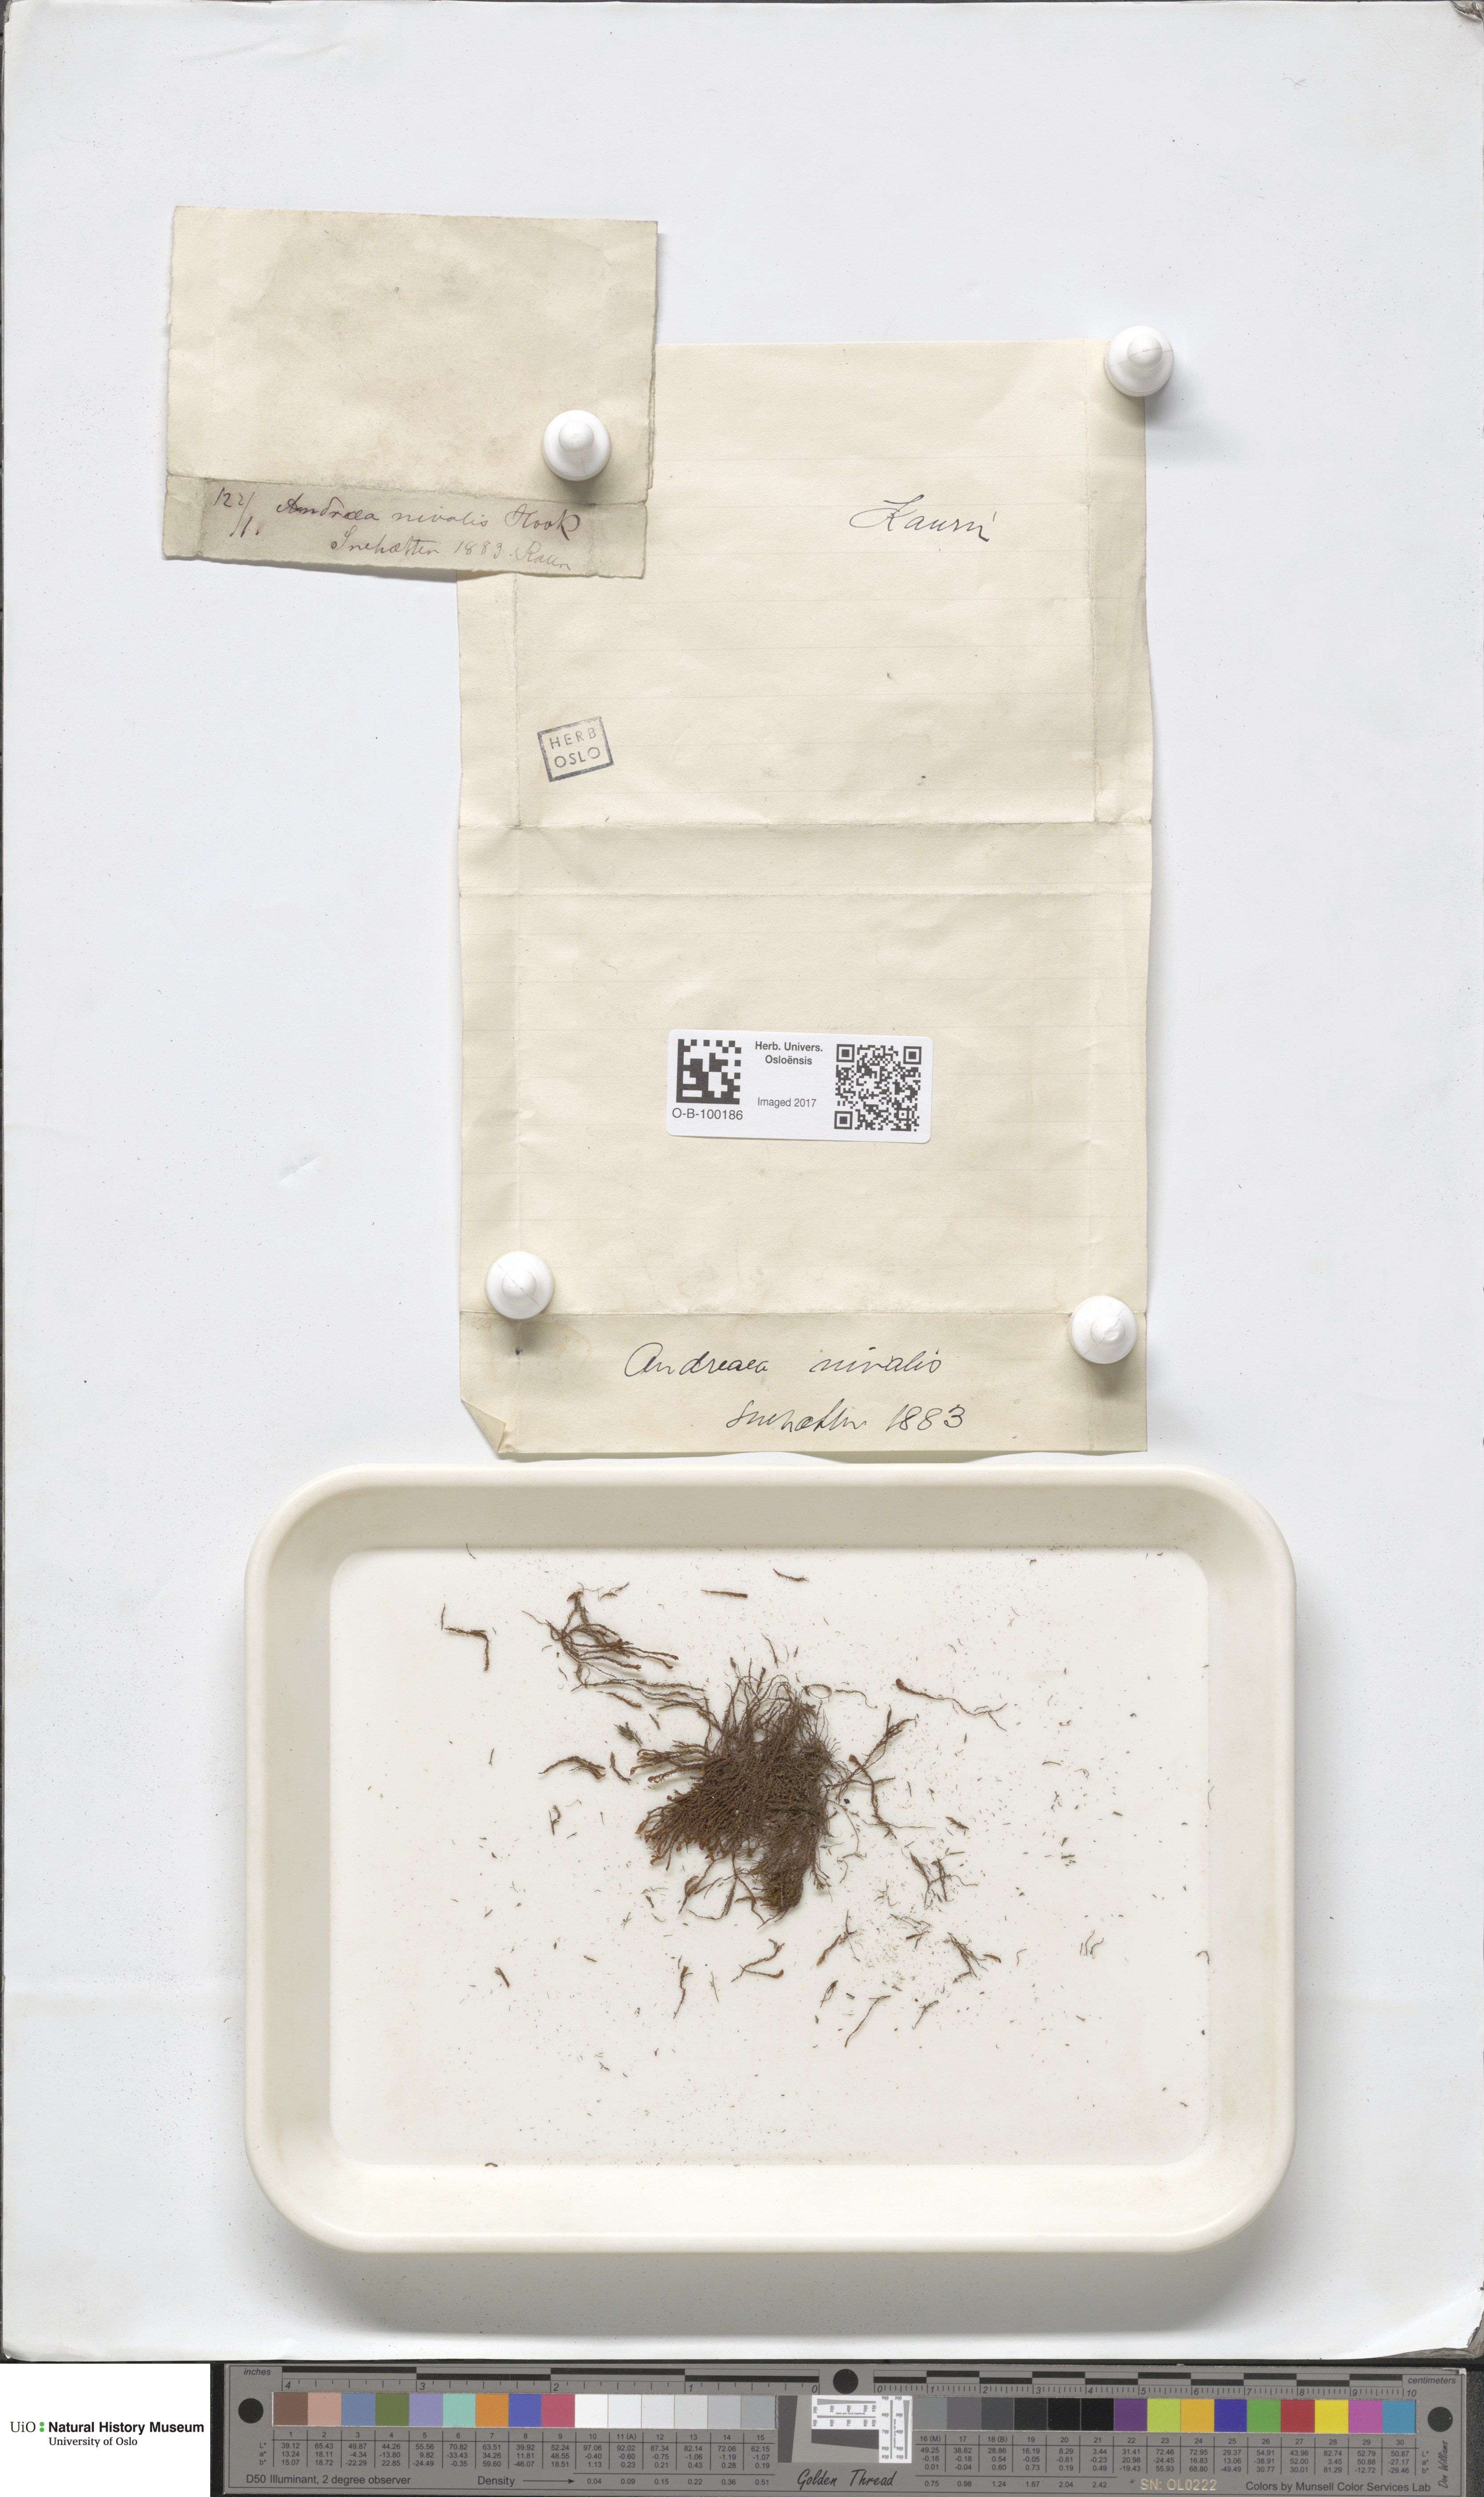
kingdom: Plantae
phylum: Bryophyta
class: Andreaeopsida
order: Andreaeales
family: Andreaeaceae
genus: Andreaea
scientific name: Andreaea nivalis
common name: Snow rock moss
